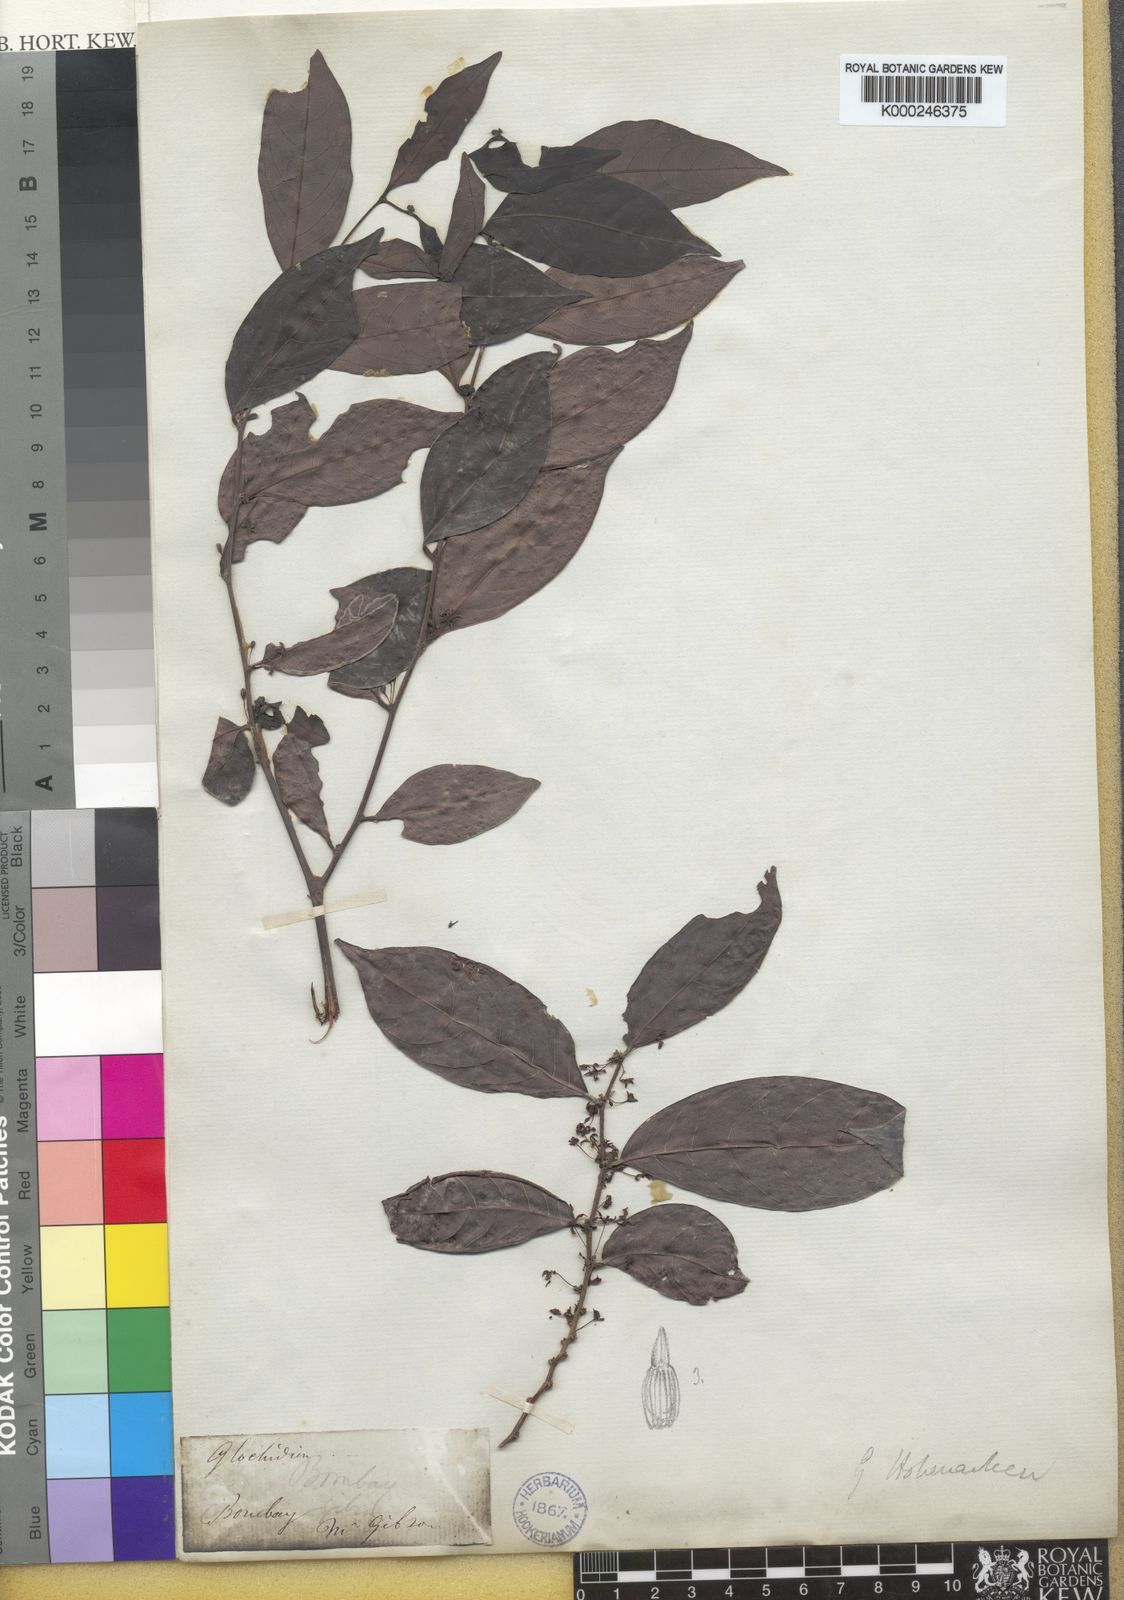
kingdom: Plantae
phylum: Tracheophyta
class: Magnoliopsida
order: Malpighiales
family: Phyllanthaceae
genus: Glochidion
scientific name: Glochidion
